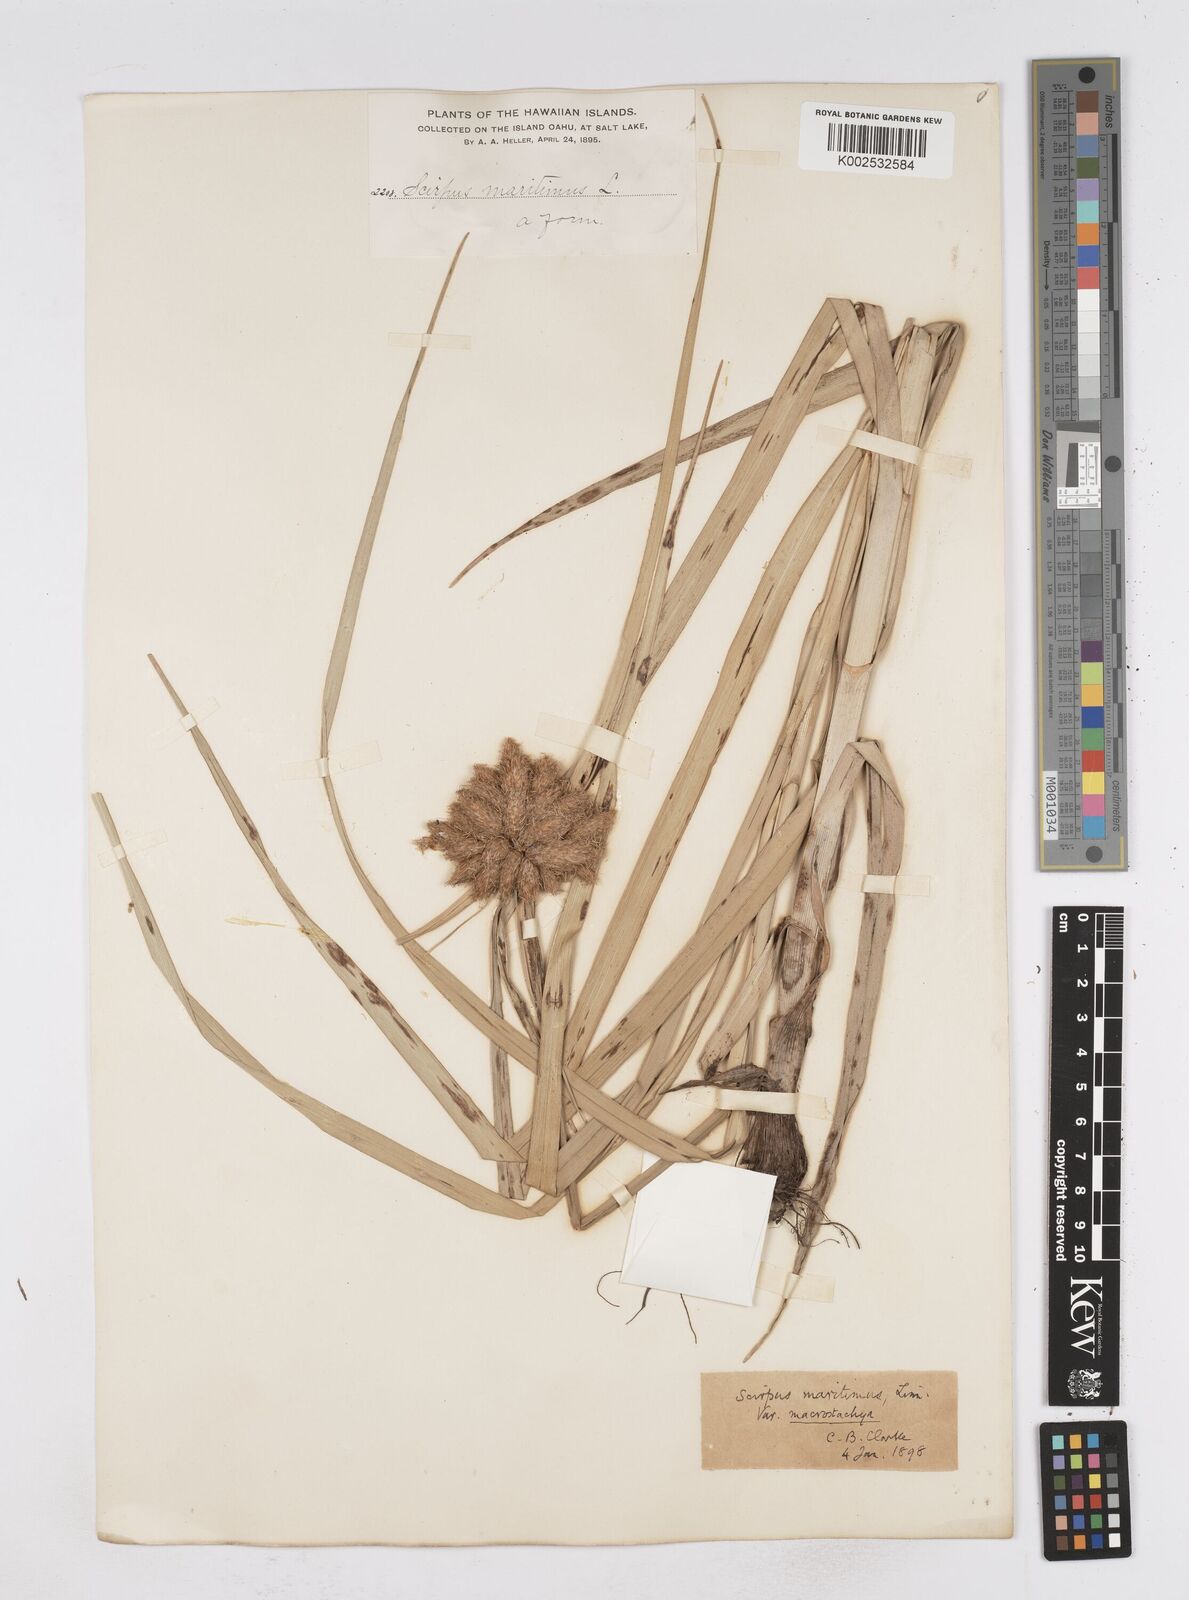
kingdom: Plantae
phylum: Tracheophyta
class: Liliopsida
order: Poales
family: Cyperaceae
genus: Bolboschoenus
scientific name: Bolboschoenus maritimus
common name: Sea club-rush
